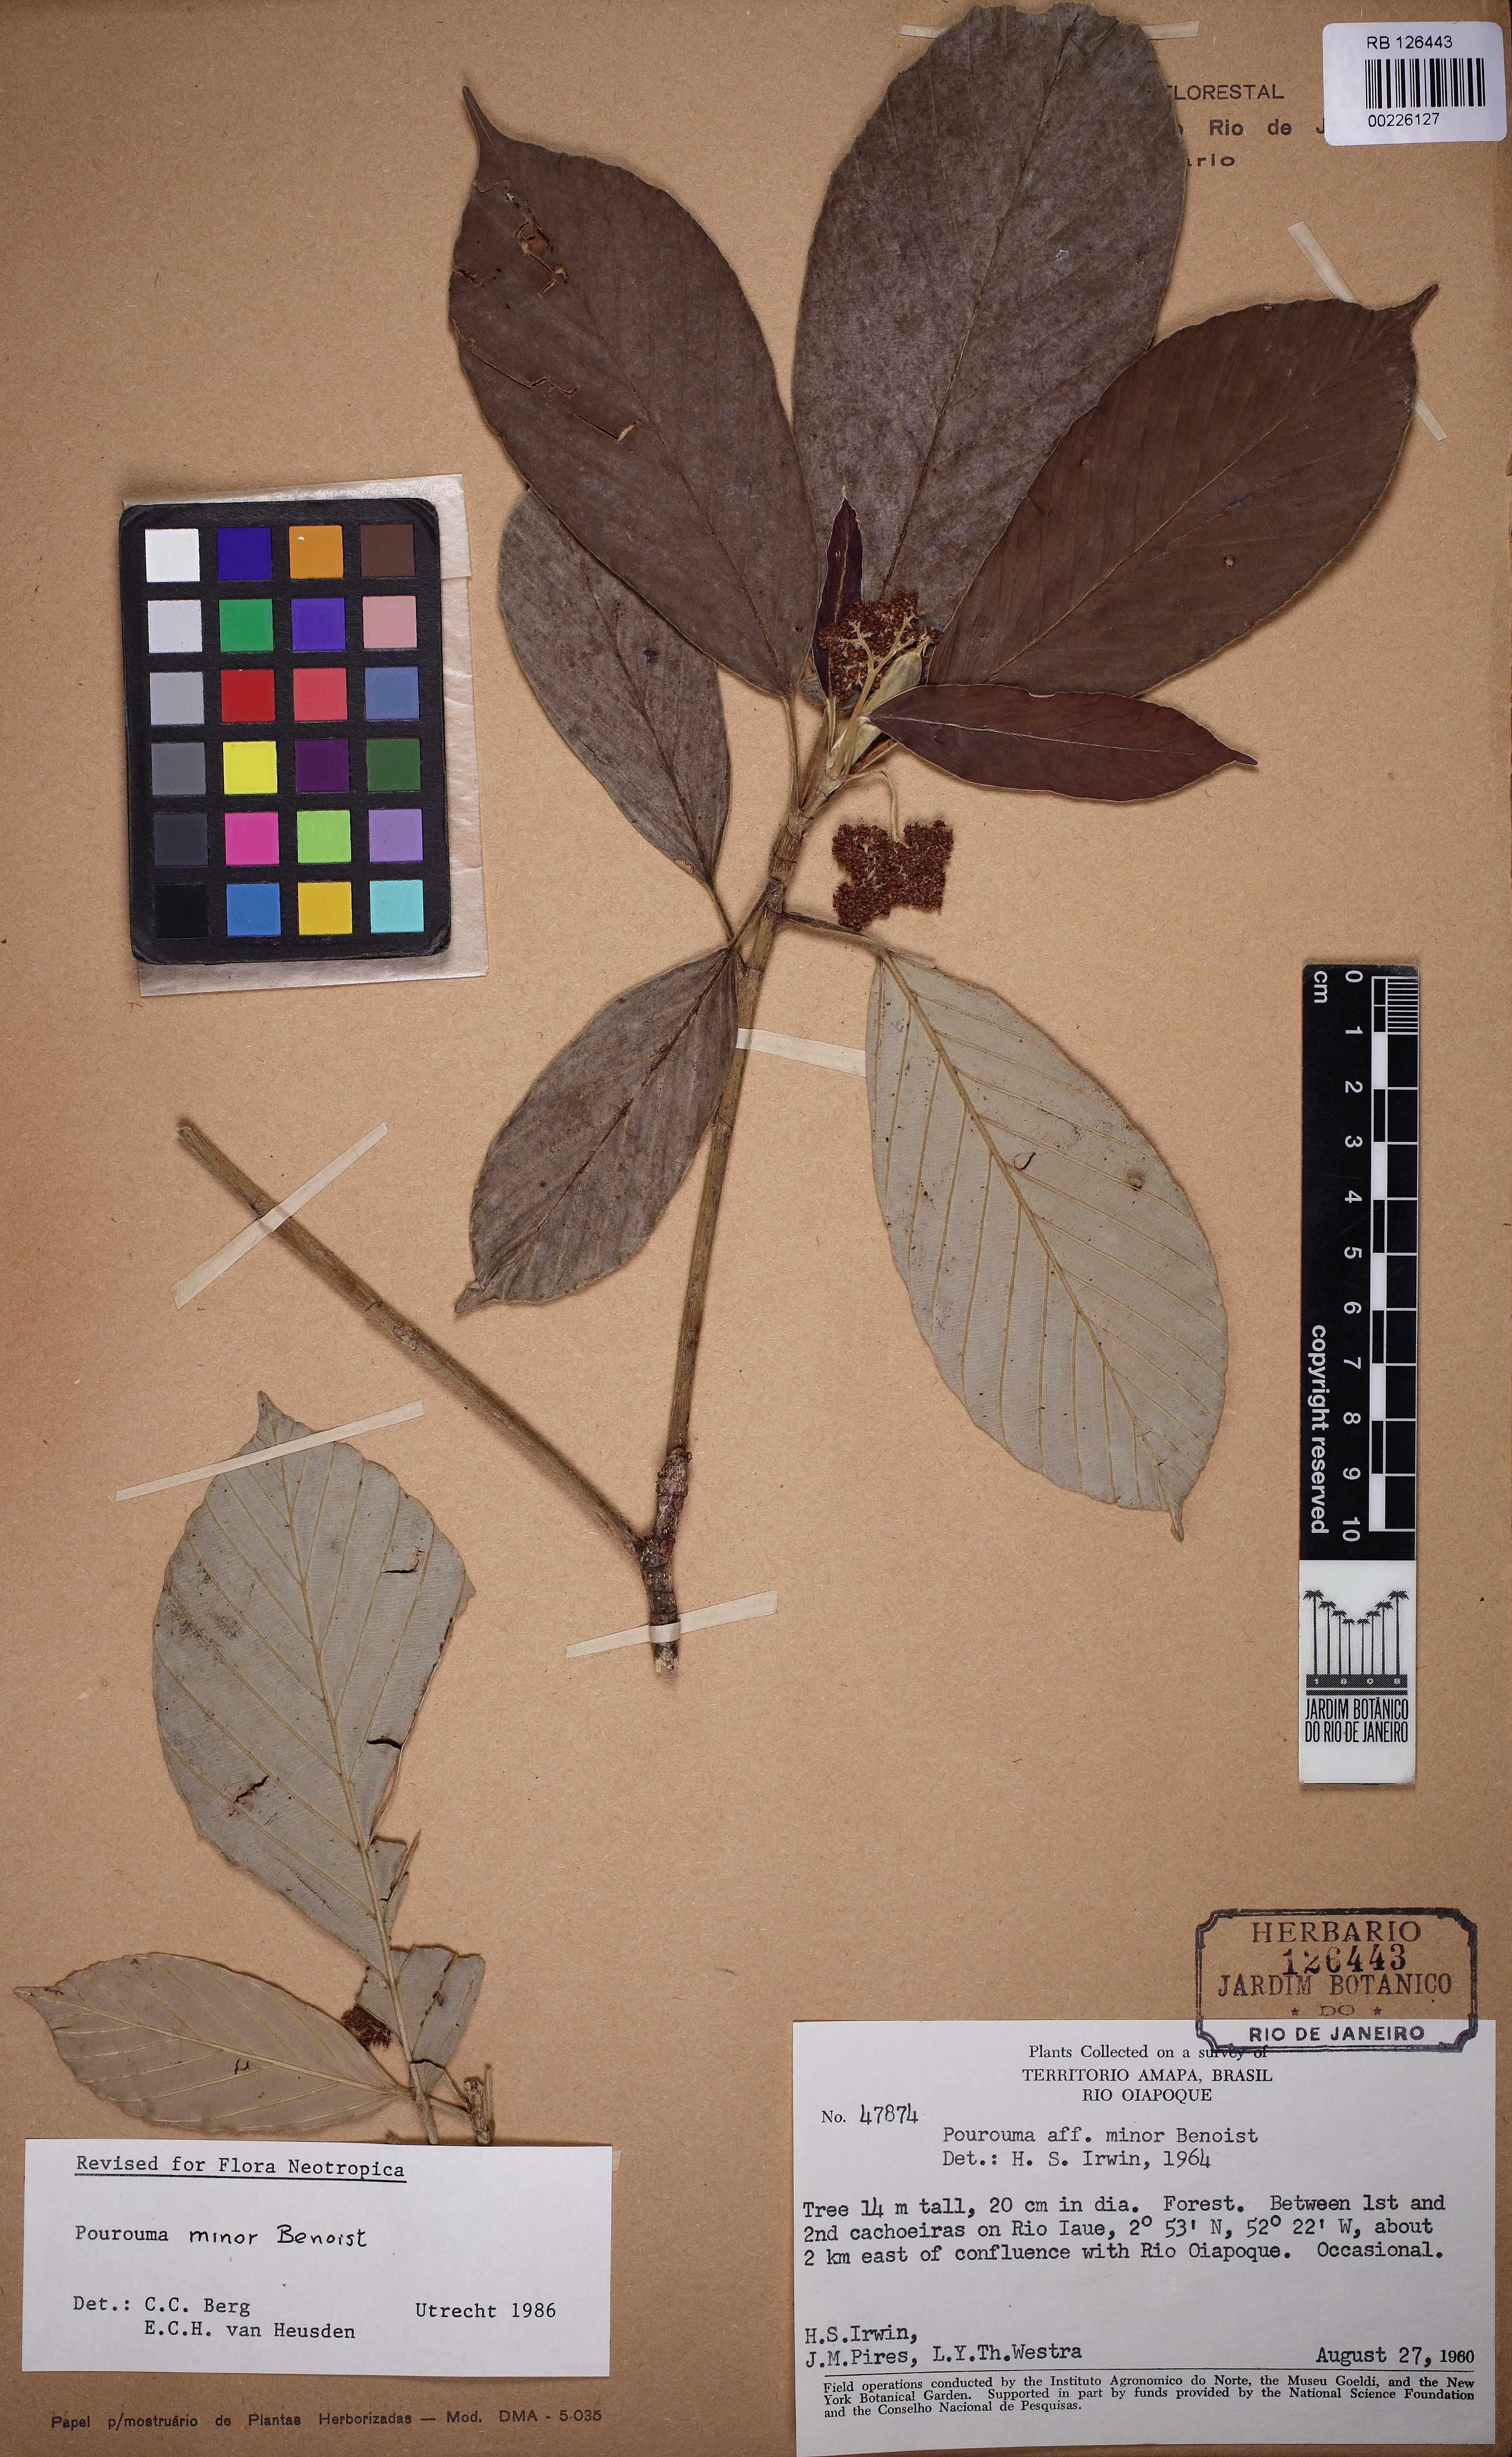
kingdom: Plantae
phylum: Tracheophyta
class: Magnoliopsida
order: Rosales
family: Urticaceae
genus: Pourouma
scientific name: Pourouma minor
